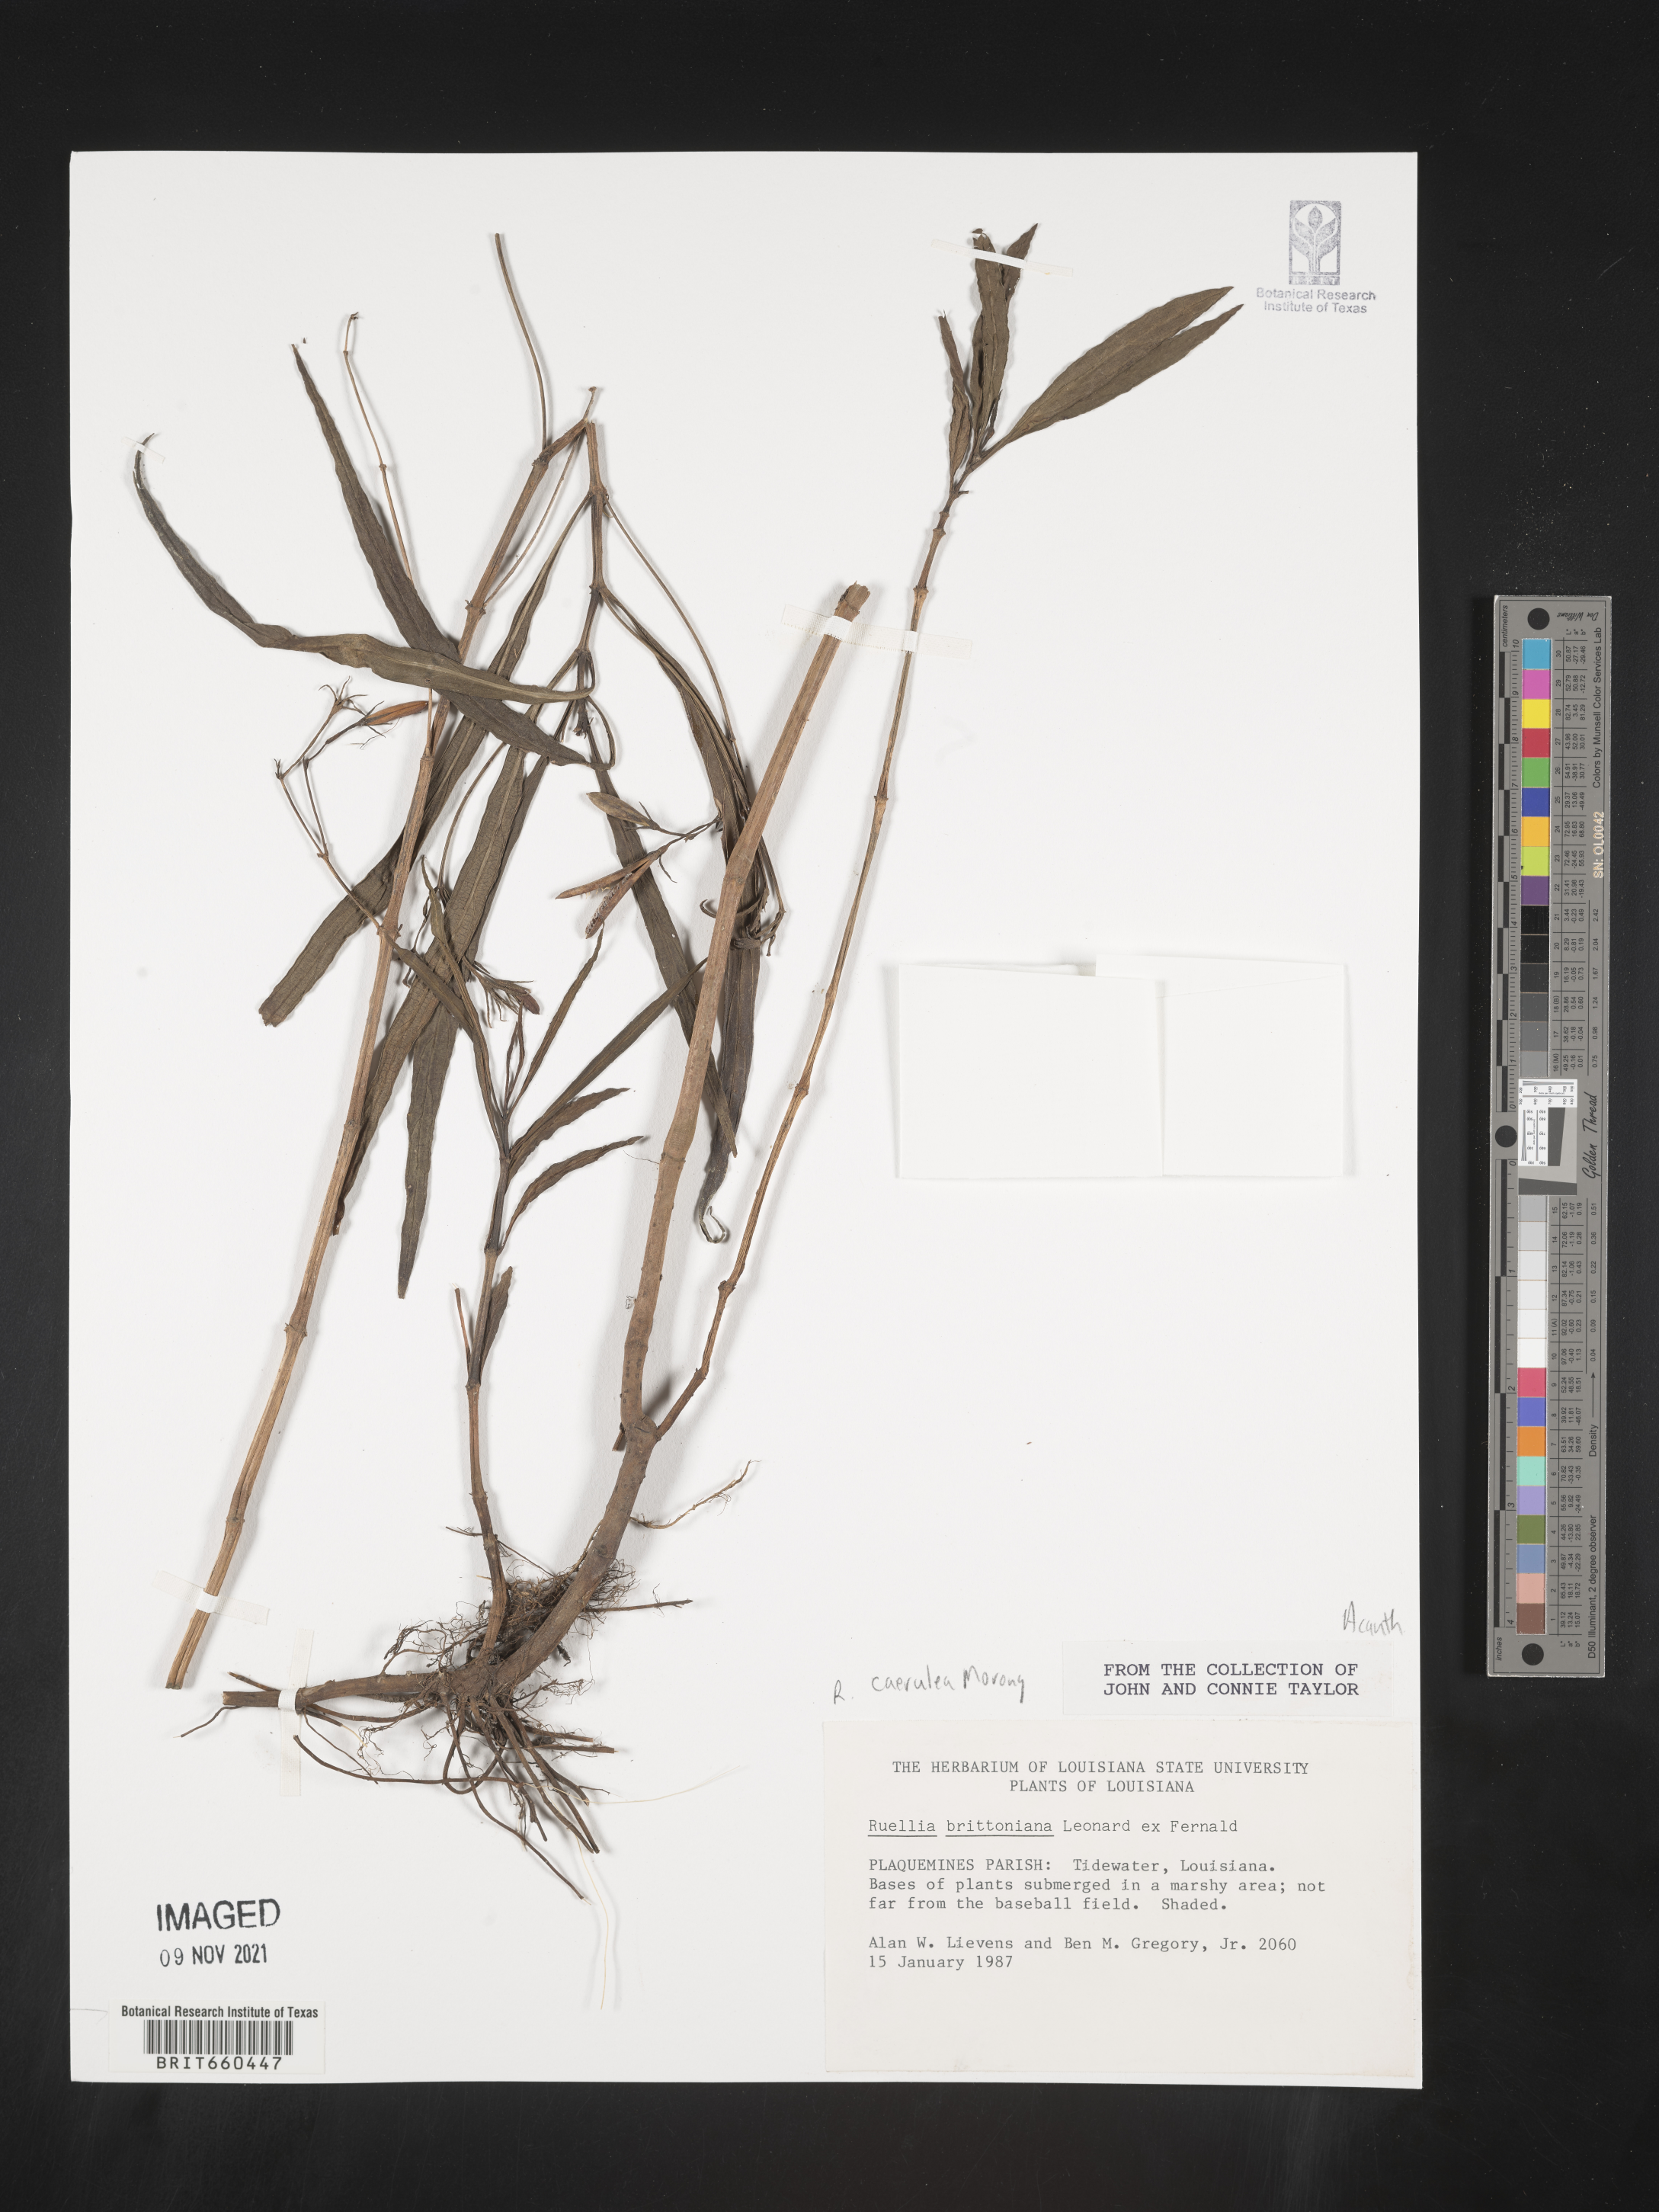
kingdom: Plantae
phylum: Tracheophyta
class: Magnoliopsida
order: Lamiales
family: Acanthaceae
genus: Ruellia
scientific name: Ruellia simplex
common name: Softseed wild petunia
